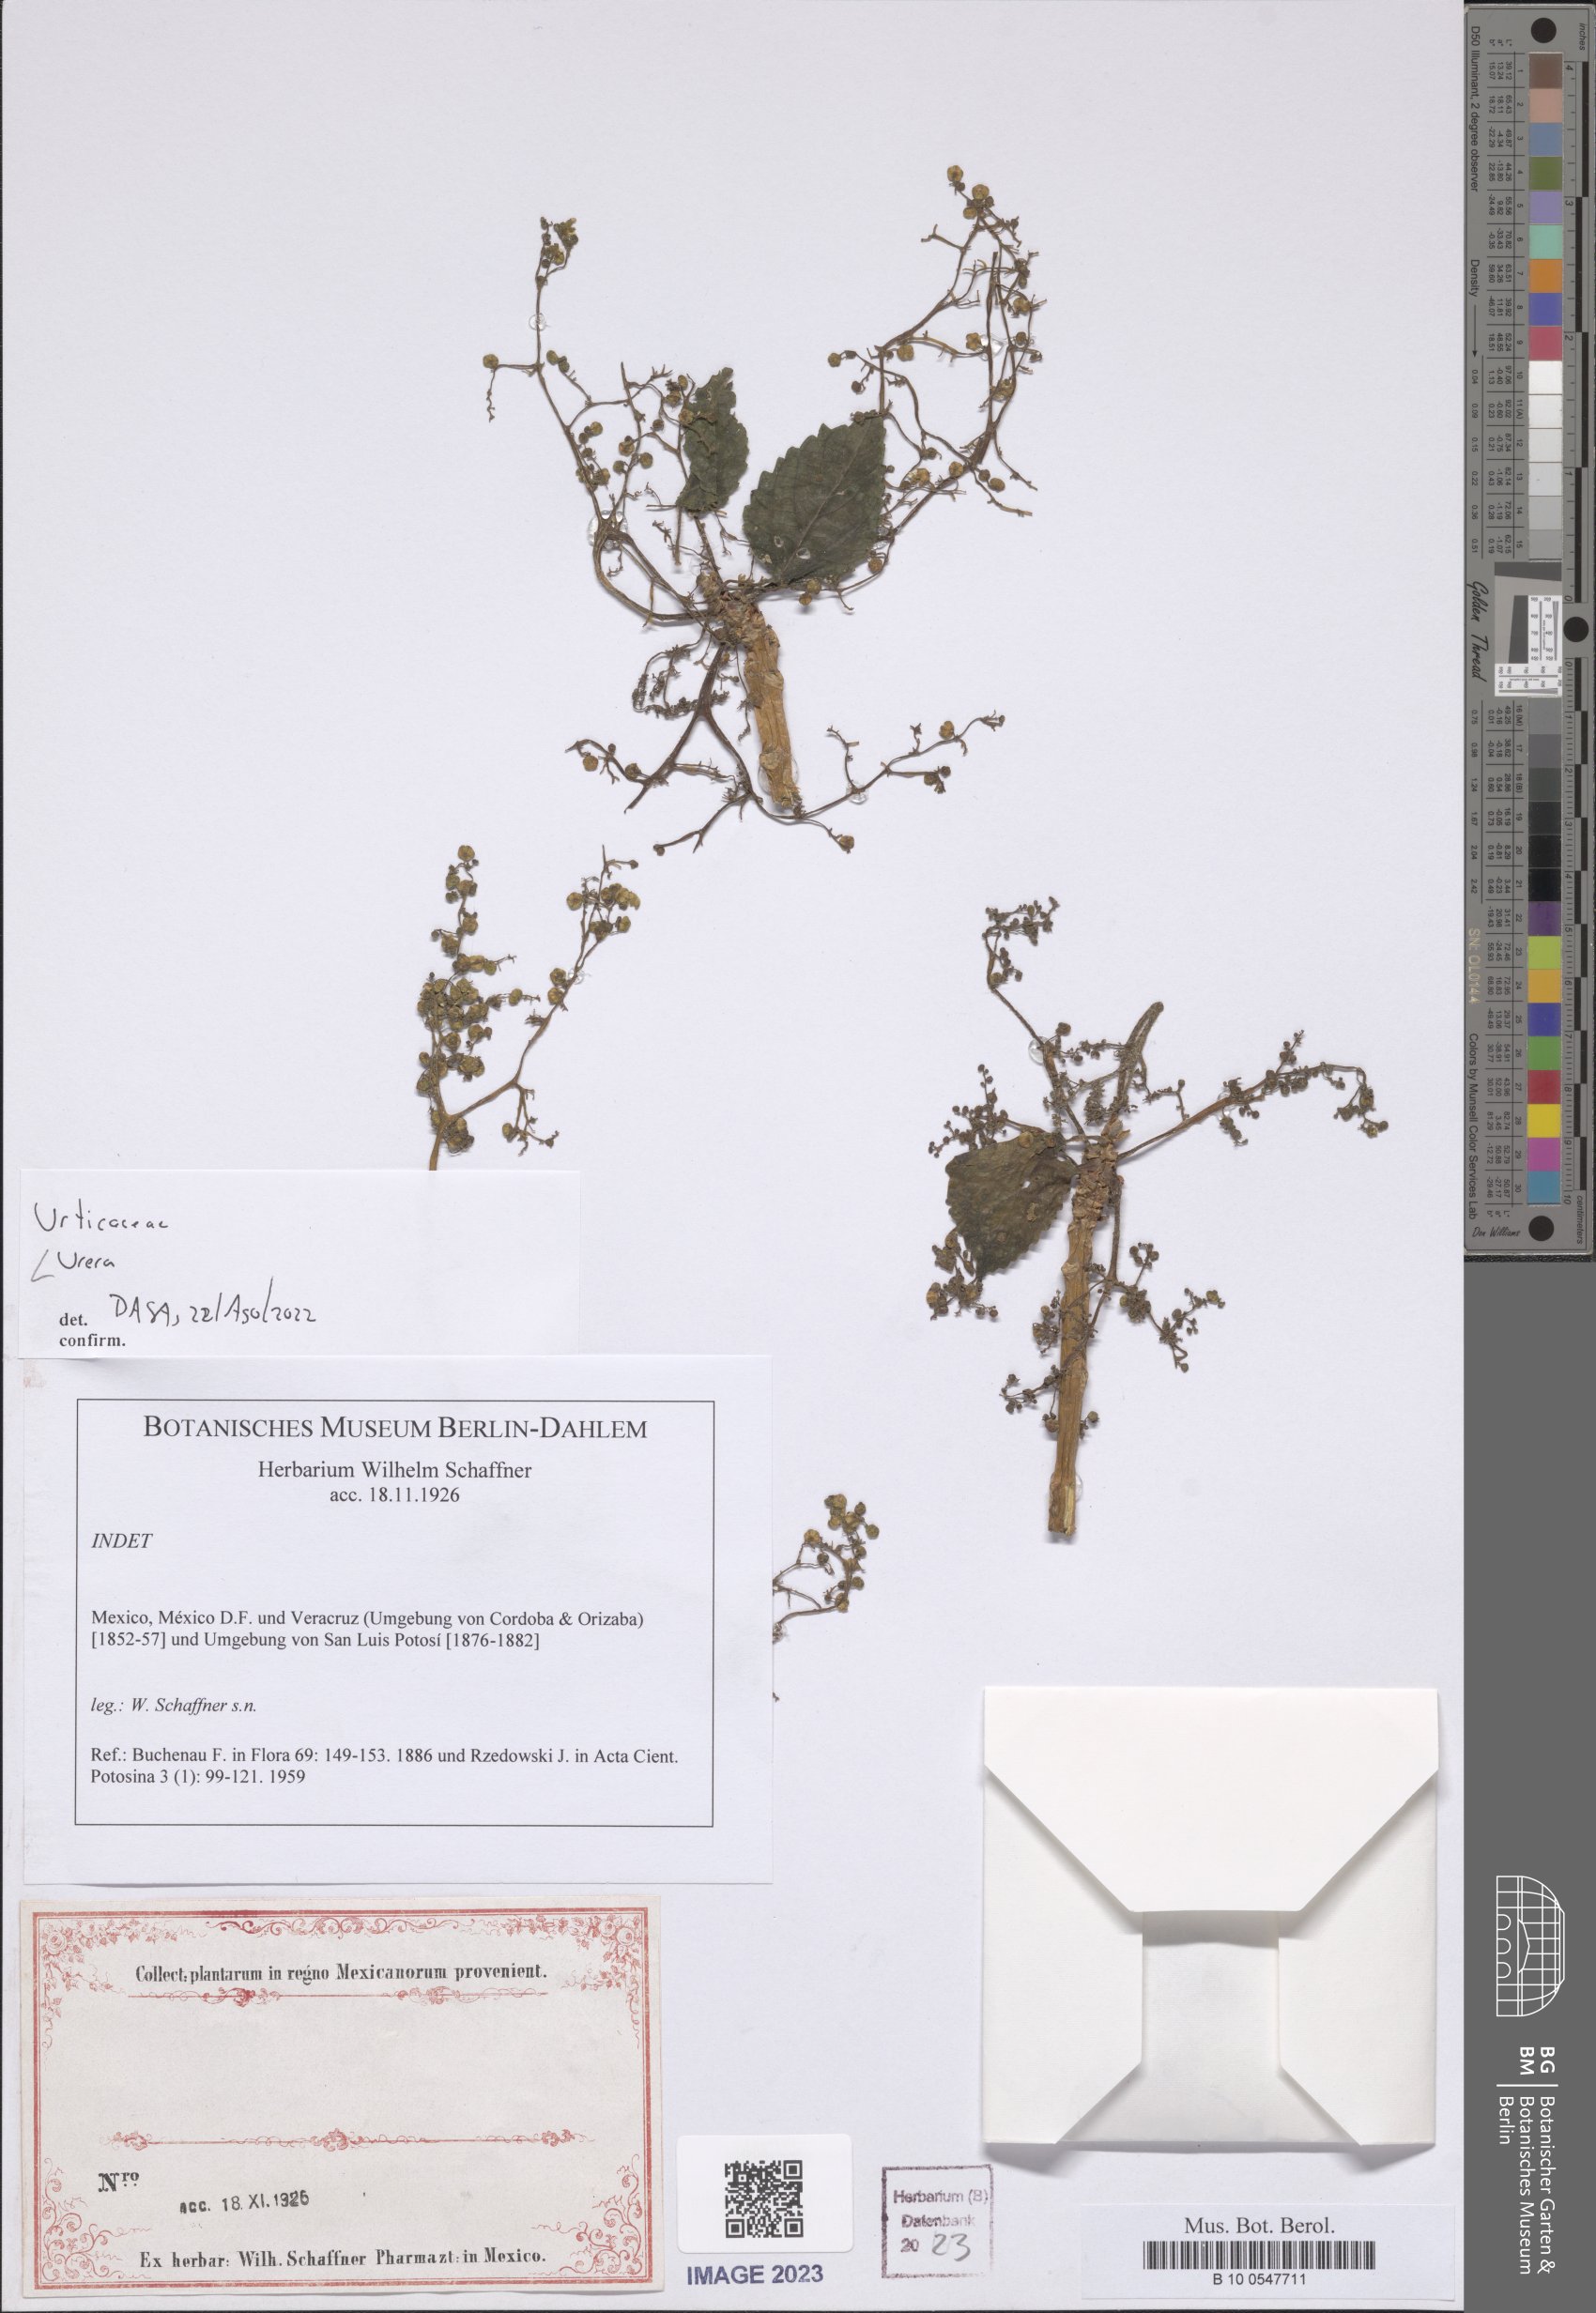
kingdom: Plantae
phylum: Tracheophyta
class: Magnoliopsida
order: Rosales
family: Urticaceae
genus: Urera
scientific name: Urera
